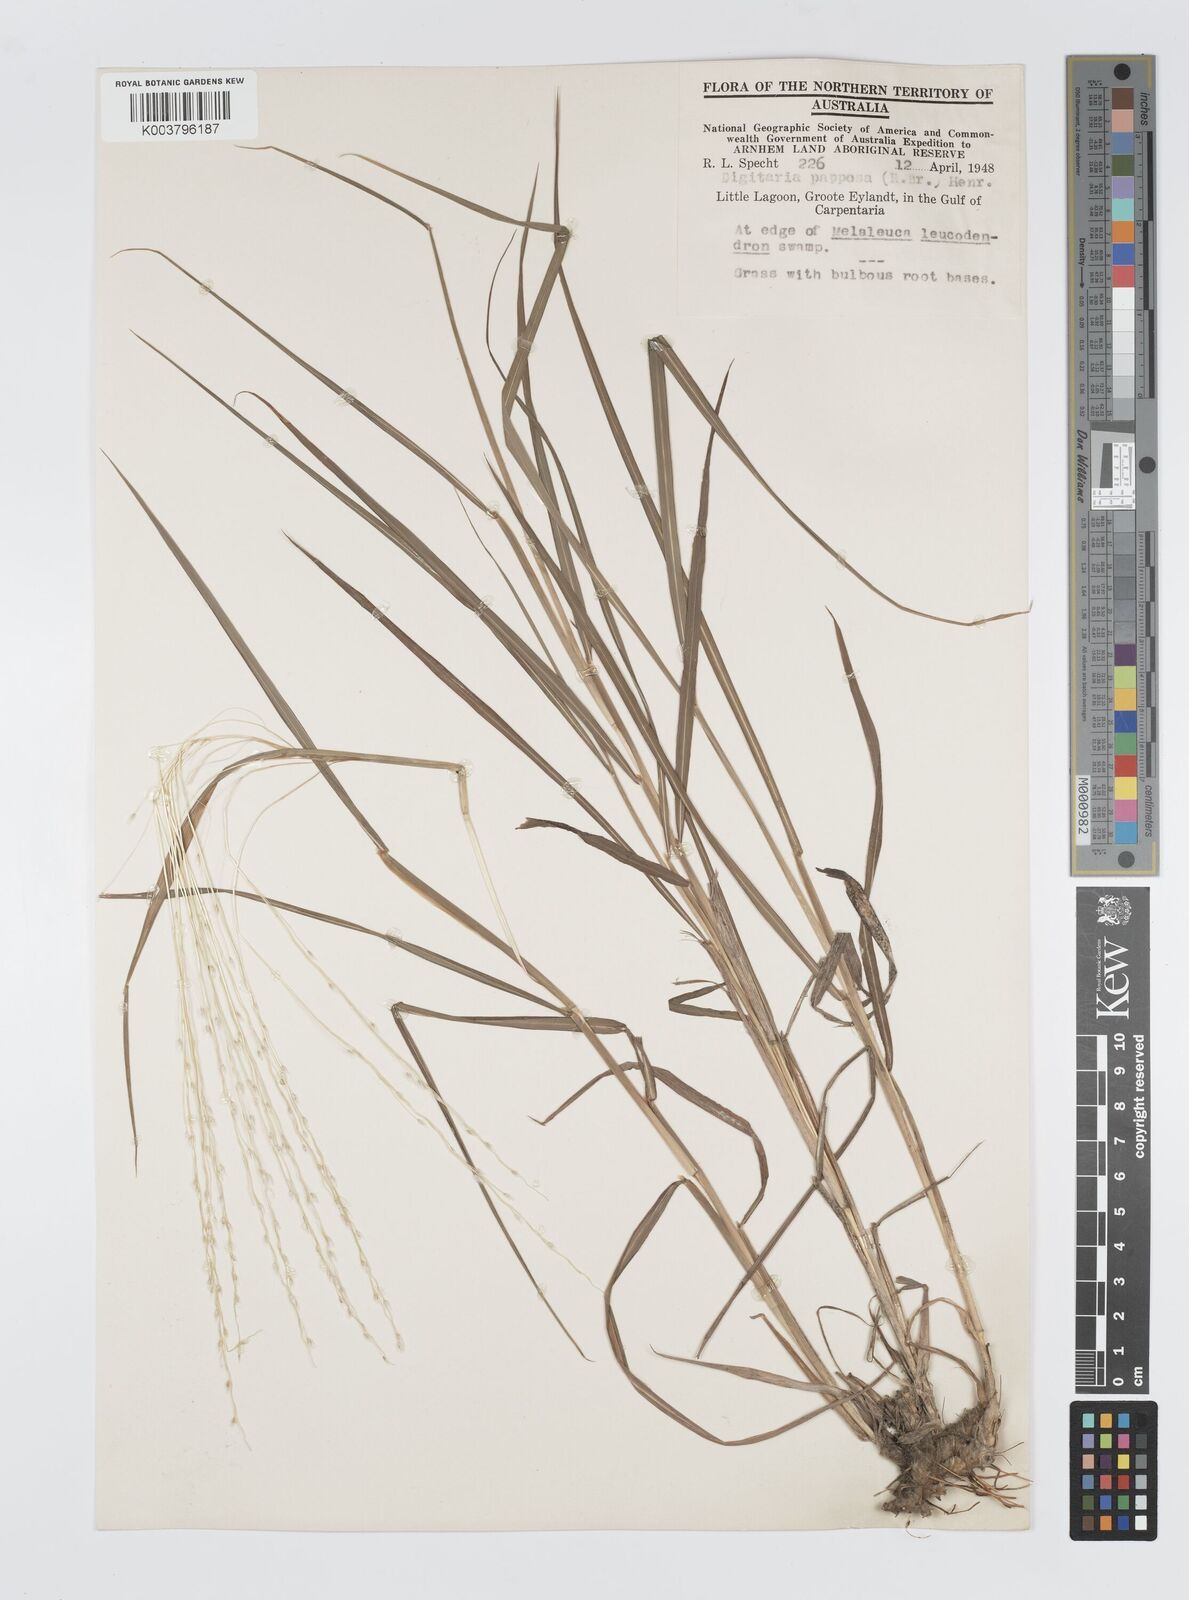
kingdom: Plantae
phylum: Tracheophyta
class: Liliopsida
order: Poales
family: Poaceae
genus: Digitaria
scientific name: Digitaria papposa
